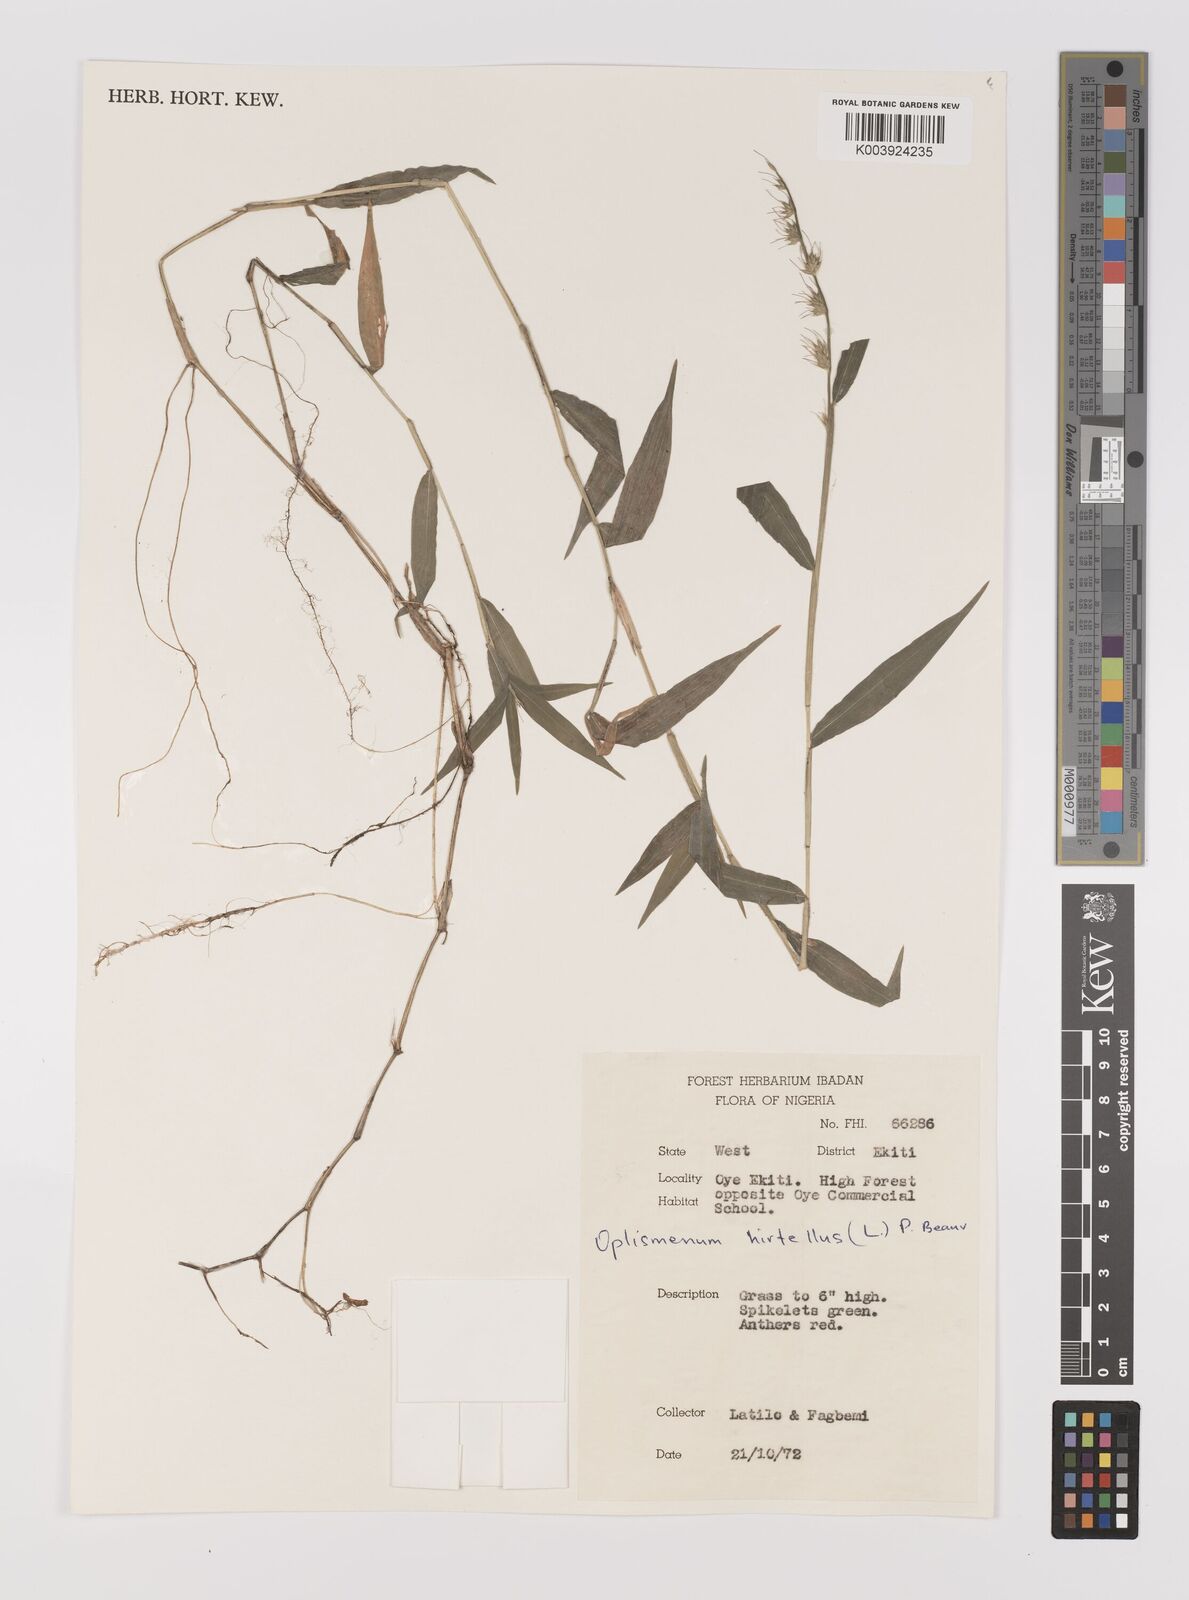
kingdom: Plantae
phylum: Tracheophyta
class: Liliopsida
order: Poales
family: Poaceae
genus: Oplismenus
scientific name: Oplismenus hirtellus
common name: Basketgrass
